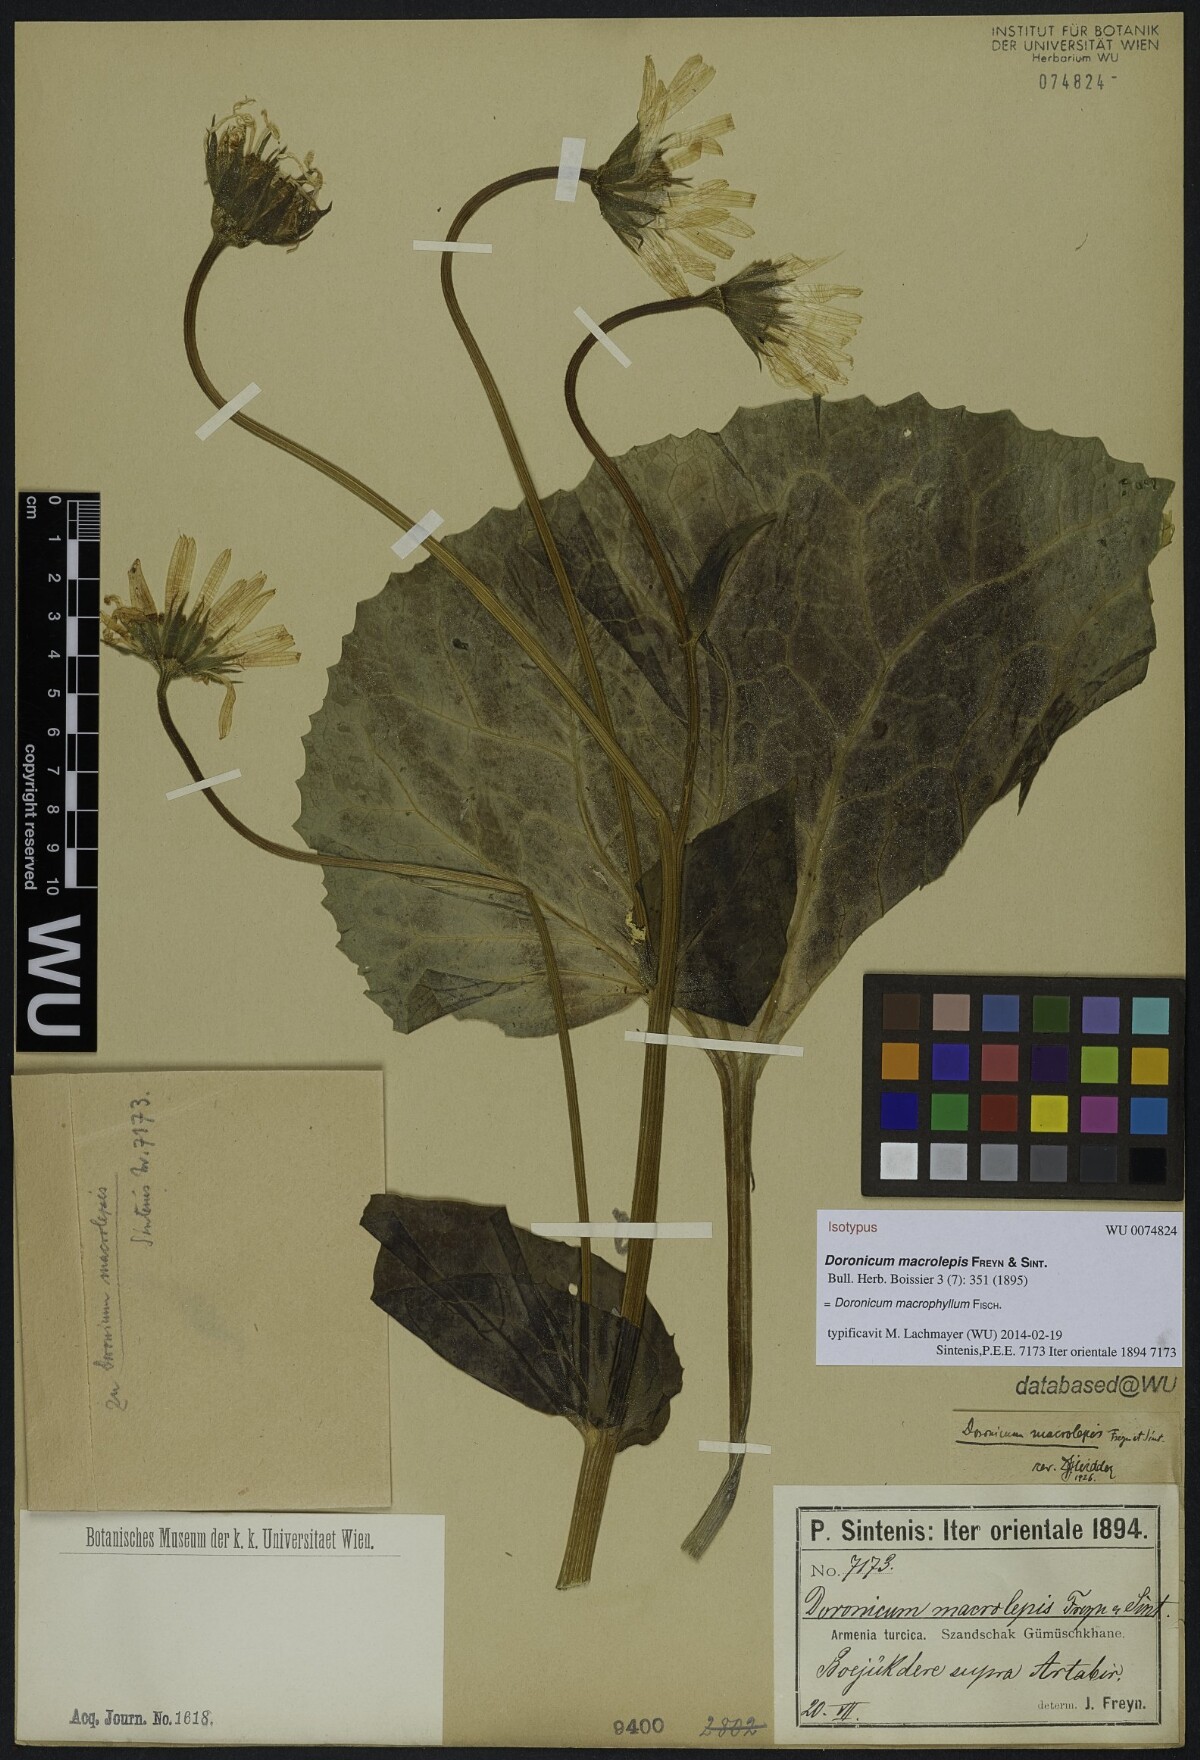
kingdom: Plantae
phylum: Tracheophyta
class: Magnoliopsida
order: Asterales
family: Asteraceae
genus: Doronicum
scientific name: Doronicum macrophyllum
